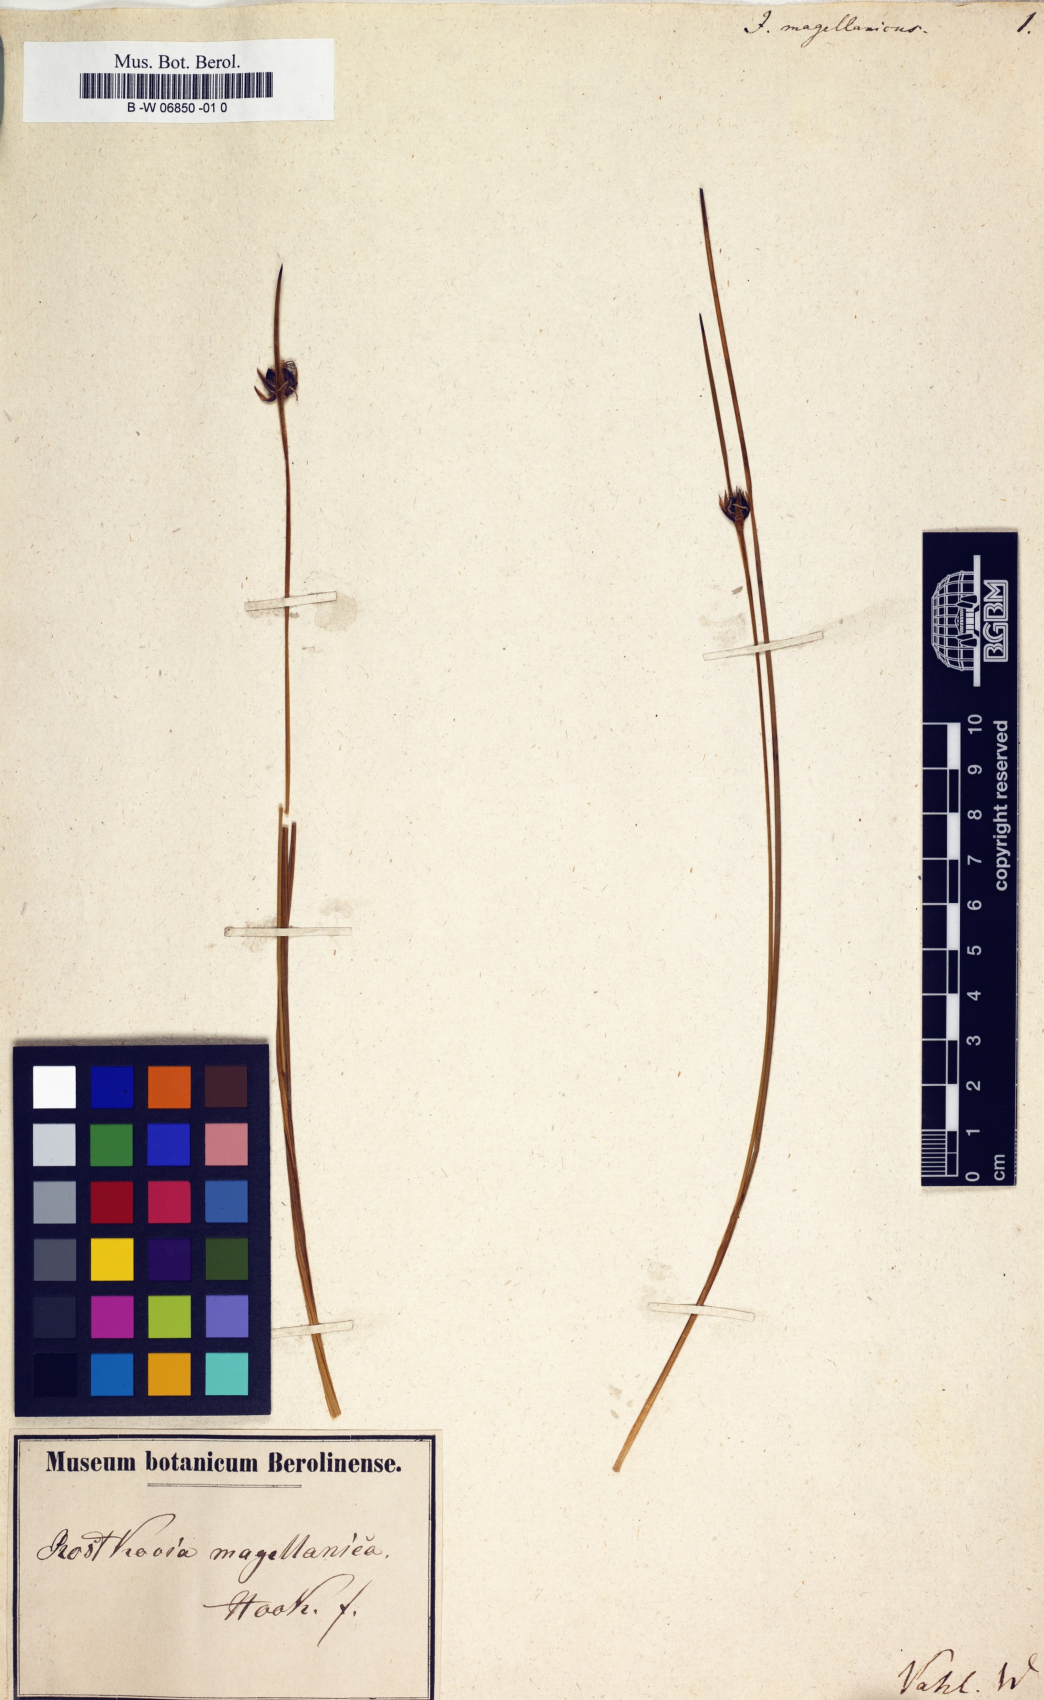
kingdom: Plantae
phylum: Tracheophyta
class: Liliopsida
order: Poales
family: Juncaceae
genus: Rostkovia
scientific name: Rostkovia magellanica
